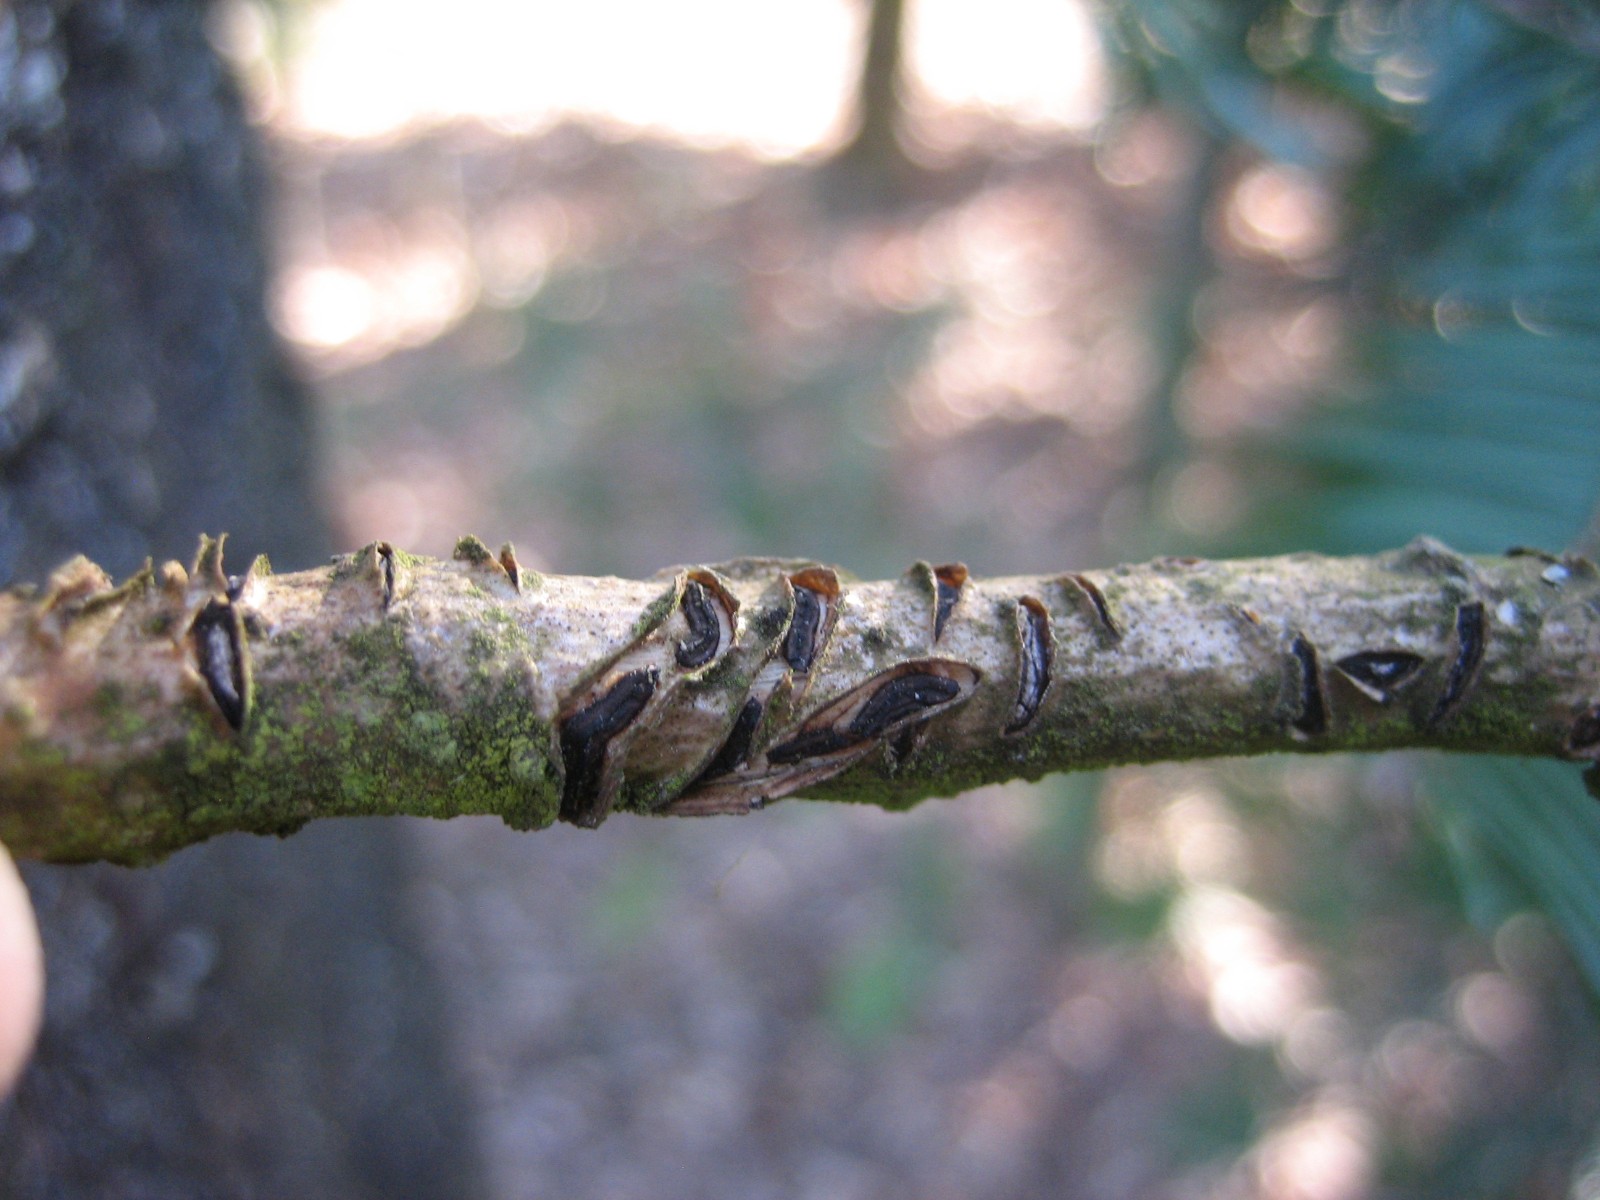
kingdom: Fungi
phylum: Ascomycota
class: Leotiomycetes
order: Rhytismatales
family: Rhytismataceae
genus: Colpoma
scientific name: Colpoma quercinum
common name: ege-sprækkeskive
